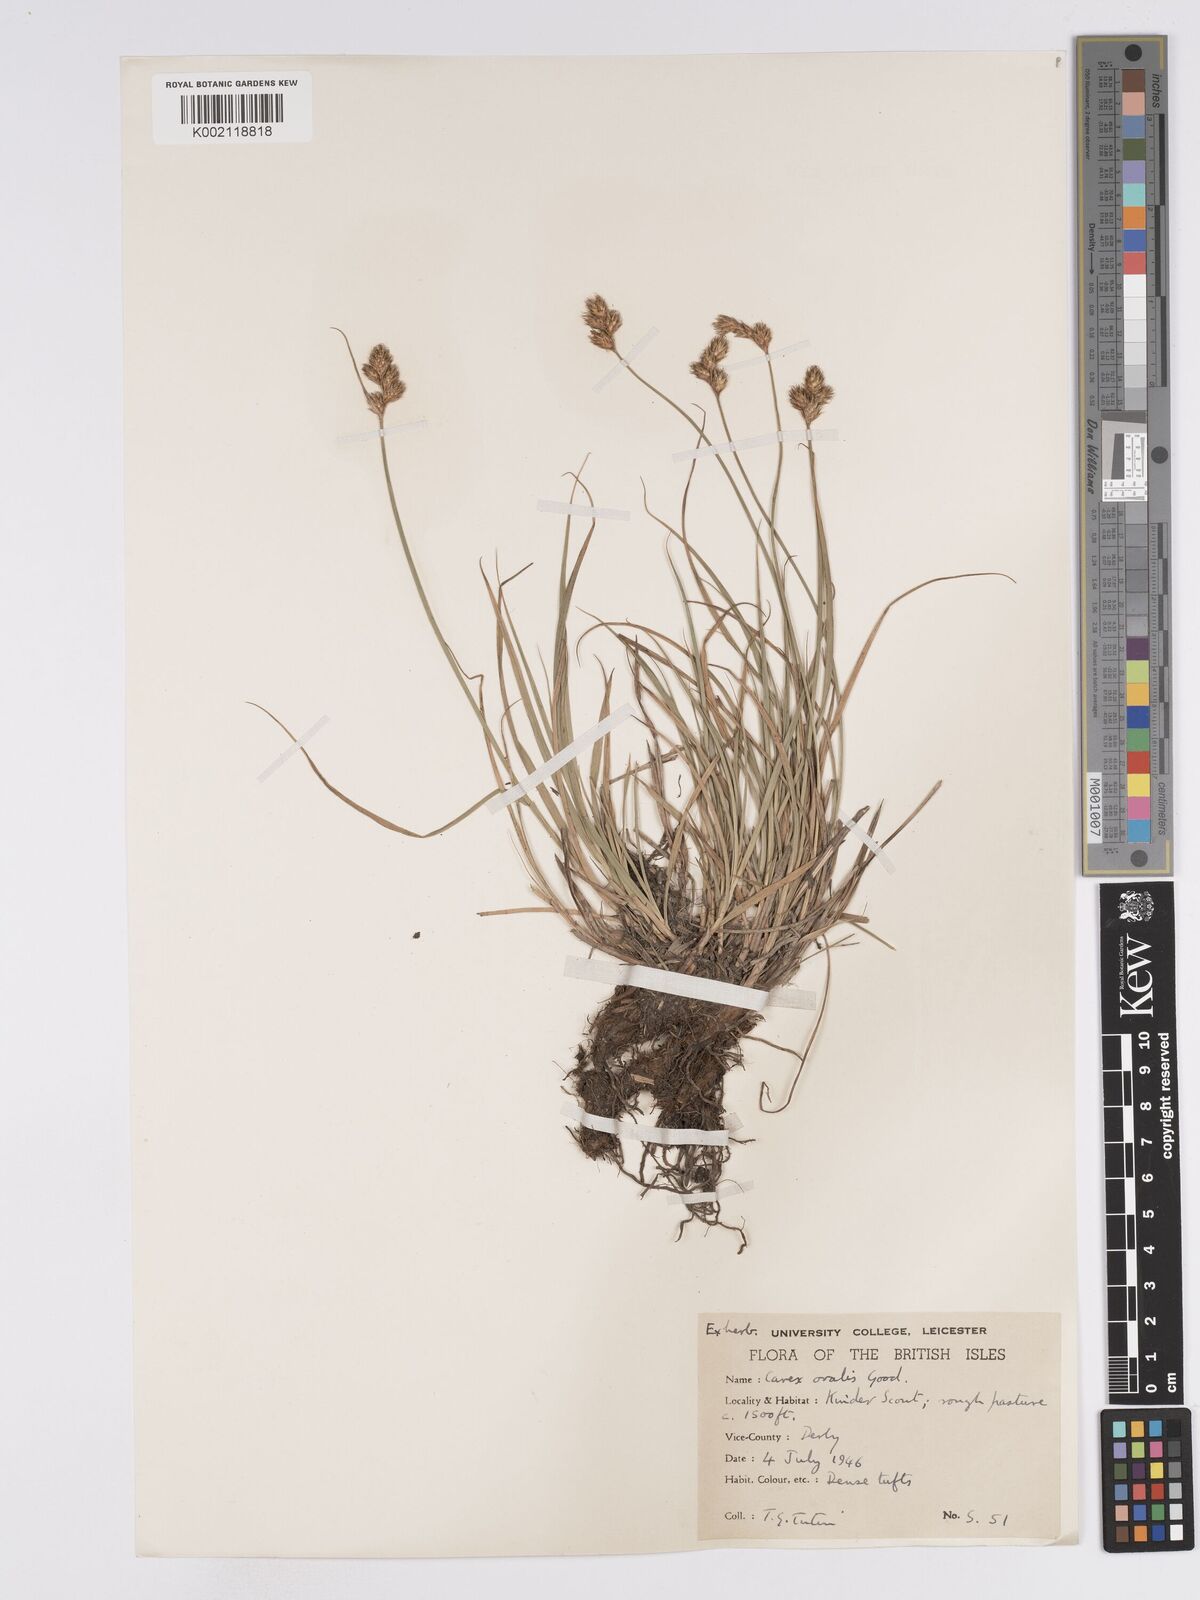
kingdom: Plantae
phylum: Tracheophyta
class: Liliopsida
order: Poales
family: Cyperaceae
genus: Carex
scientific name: Carex leporina
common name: Oval sedge
